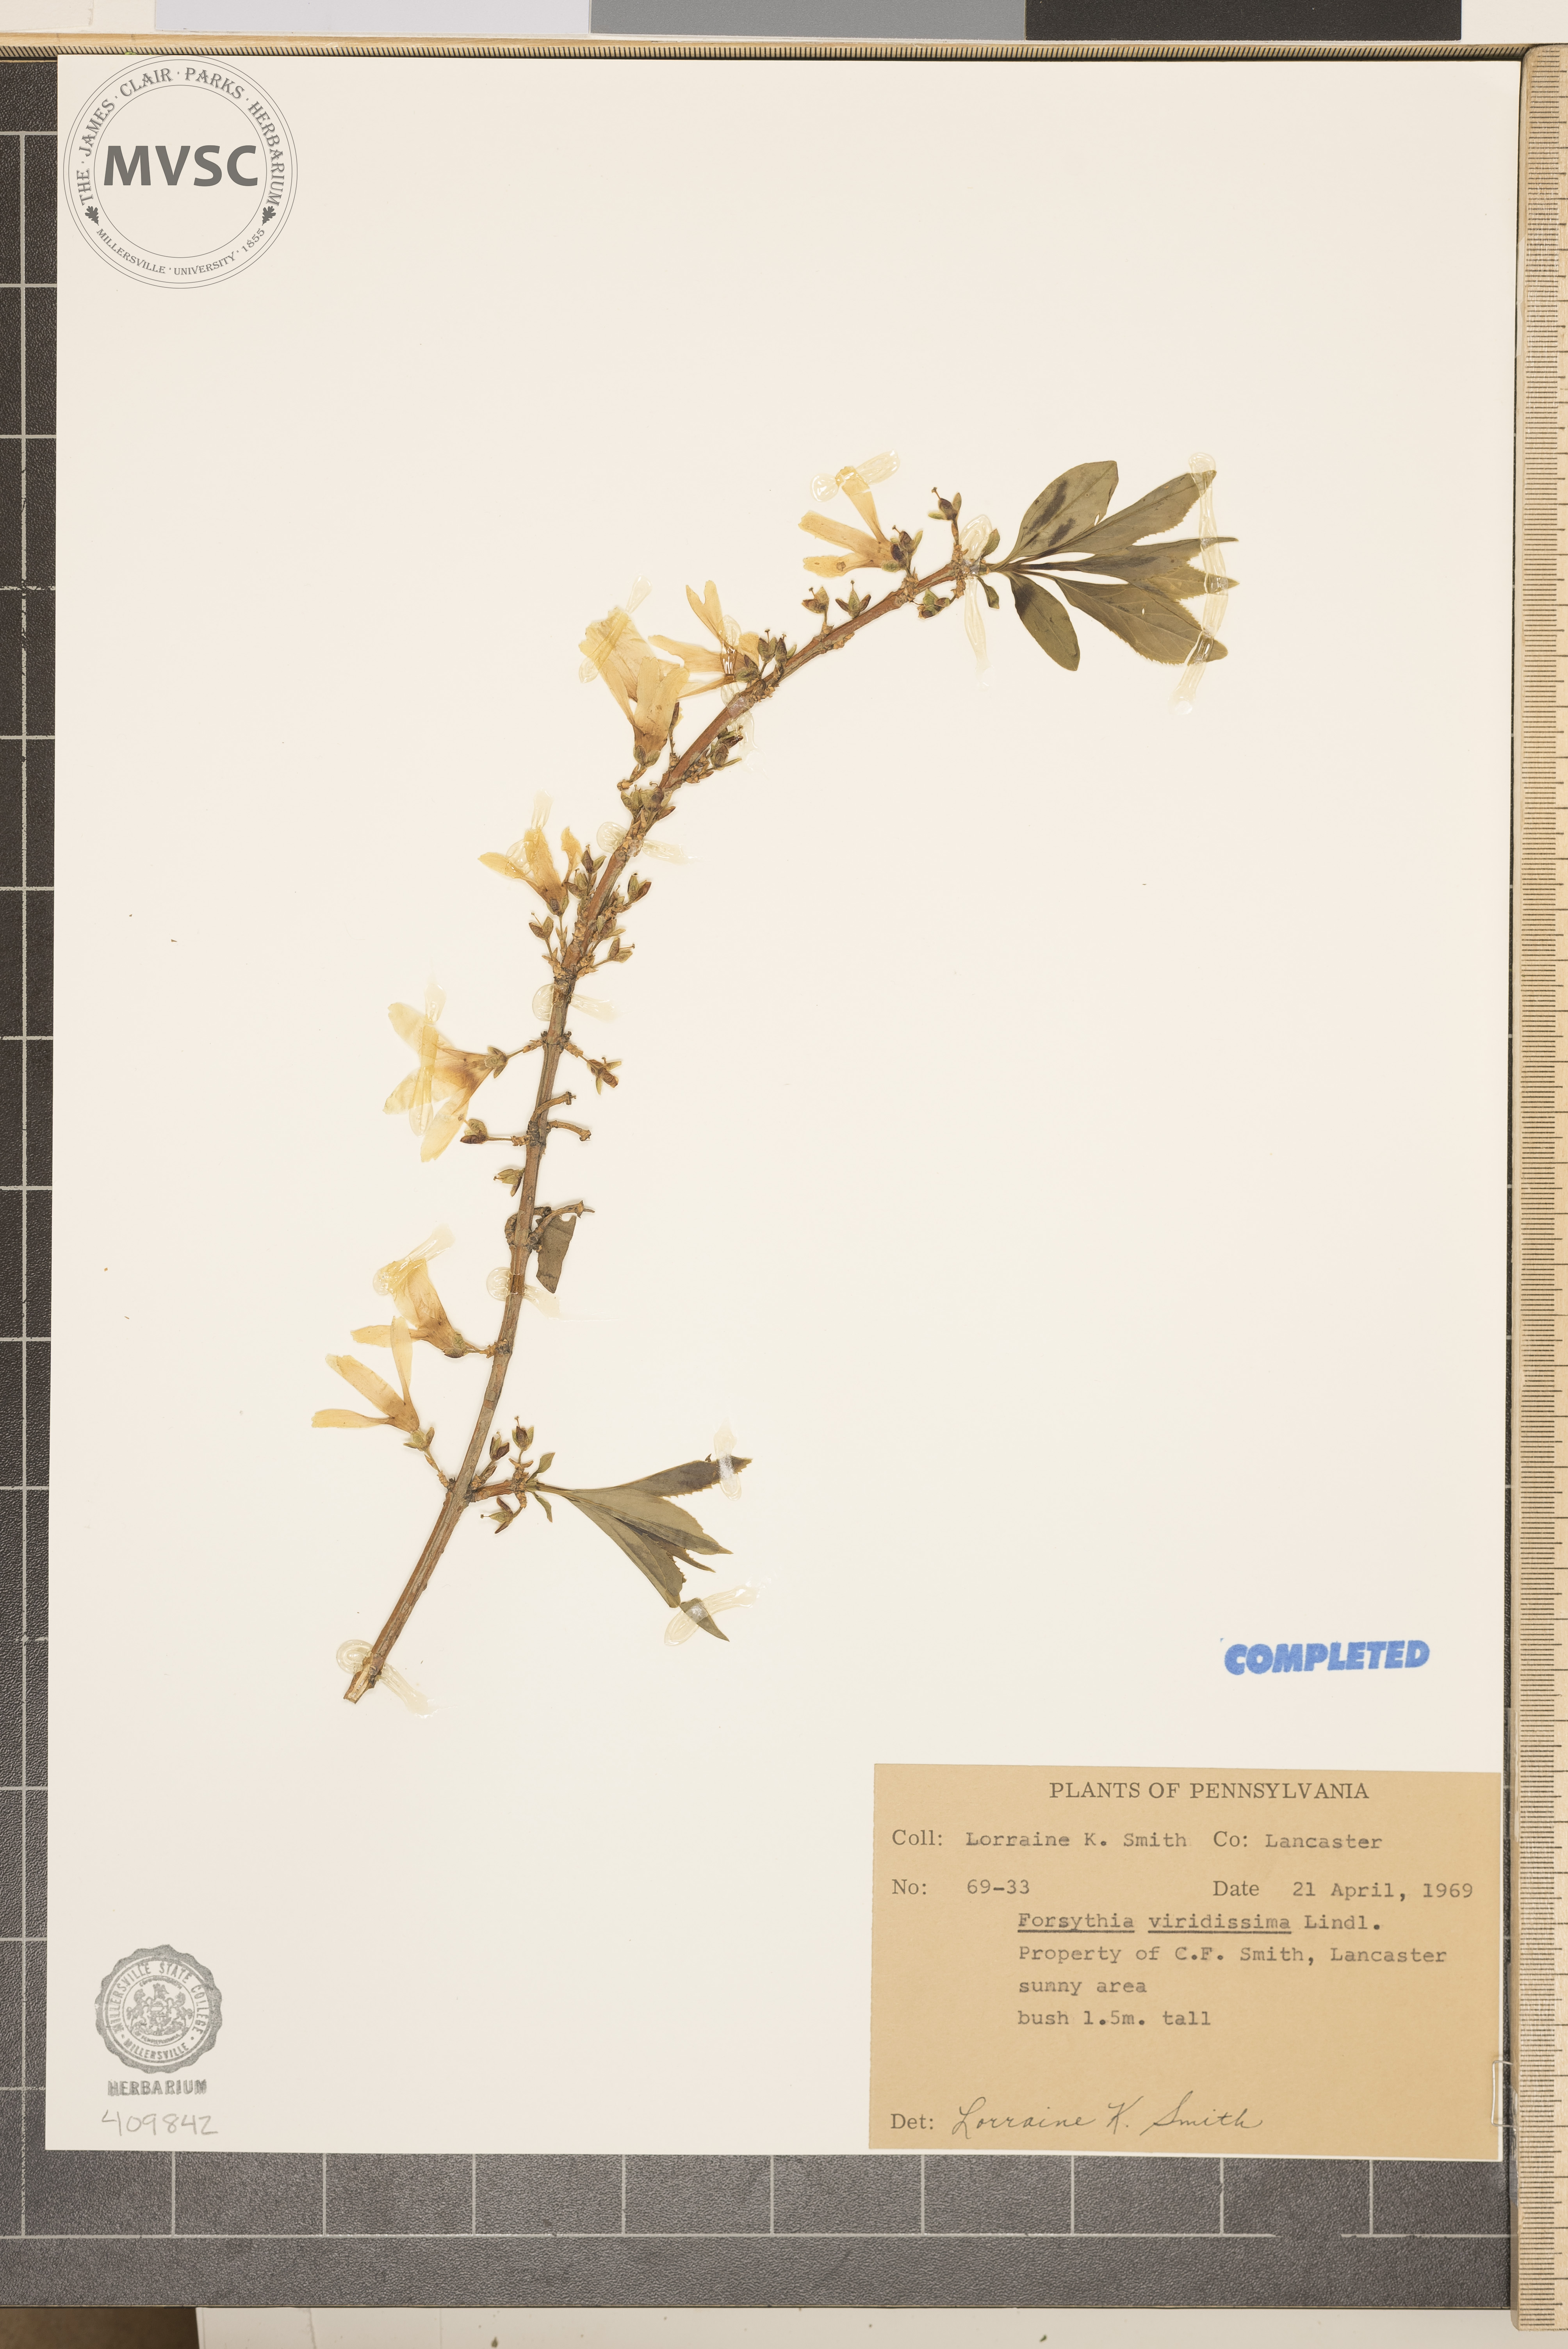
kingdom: Plantae
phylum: Tracheophyta
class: Magnoliopsida
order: Lamiales
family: Oleaceae
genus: Forsythia
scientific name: Forsythia viridissima
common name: Greenstem forsythia
